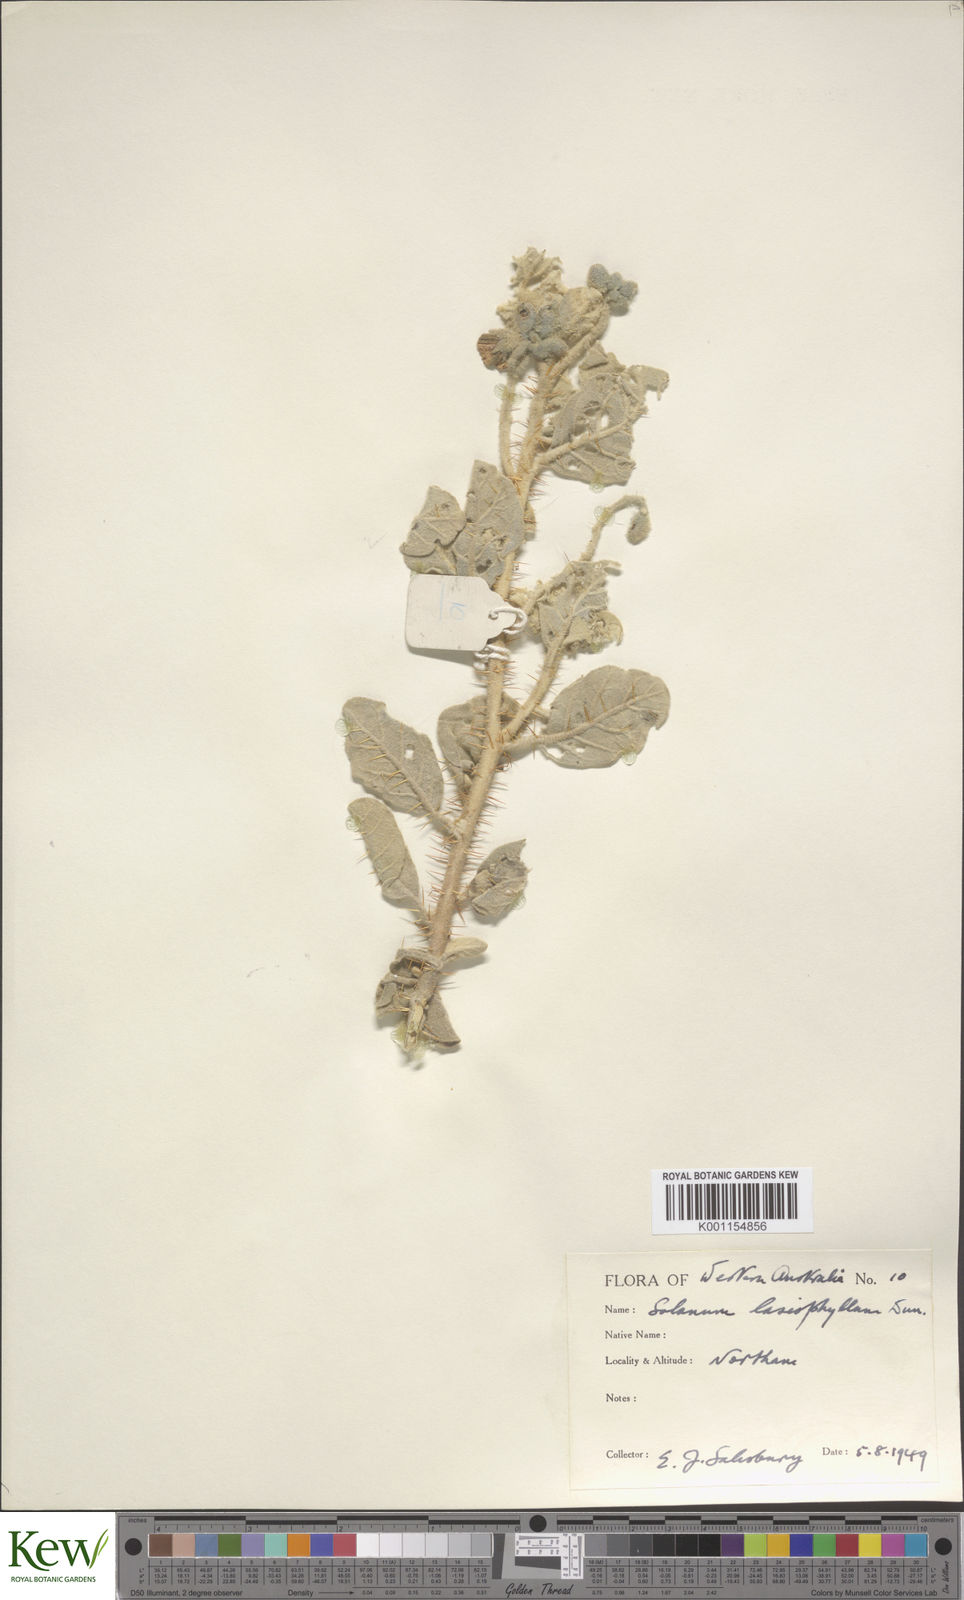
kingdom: Plantae
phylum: Tracheophyta
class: Magnoliopsida
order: Solanales
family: Solanaceae
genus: Solanum
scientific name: Solanum lasiophyllum
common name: Flannelbush
